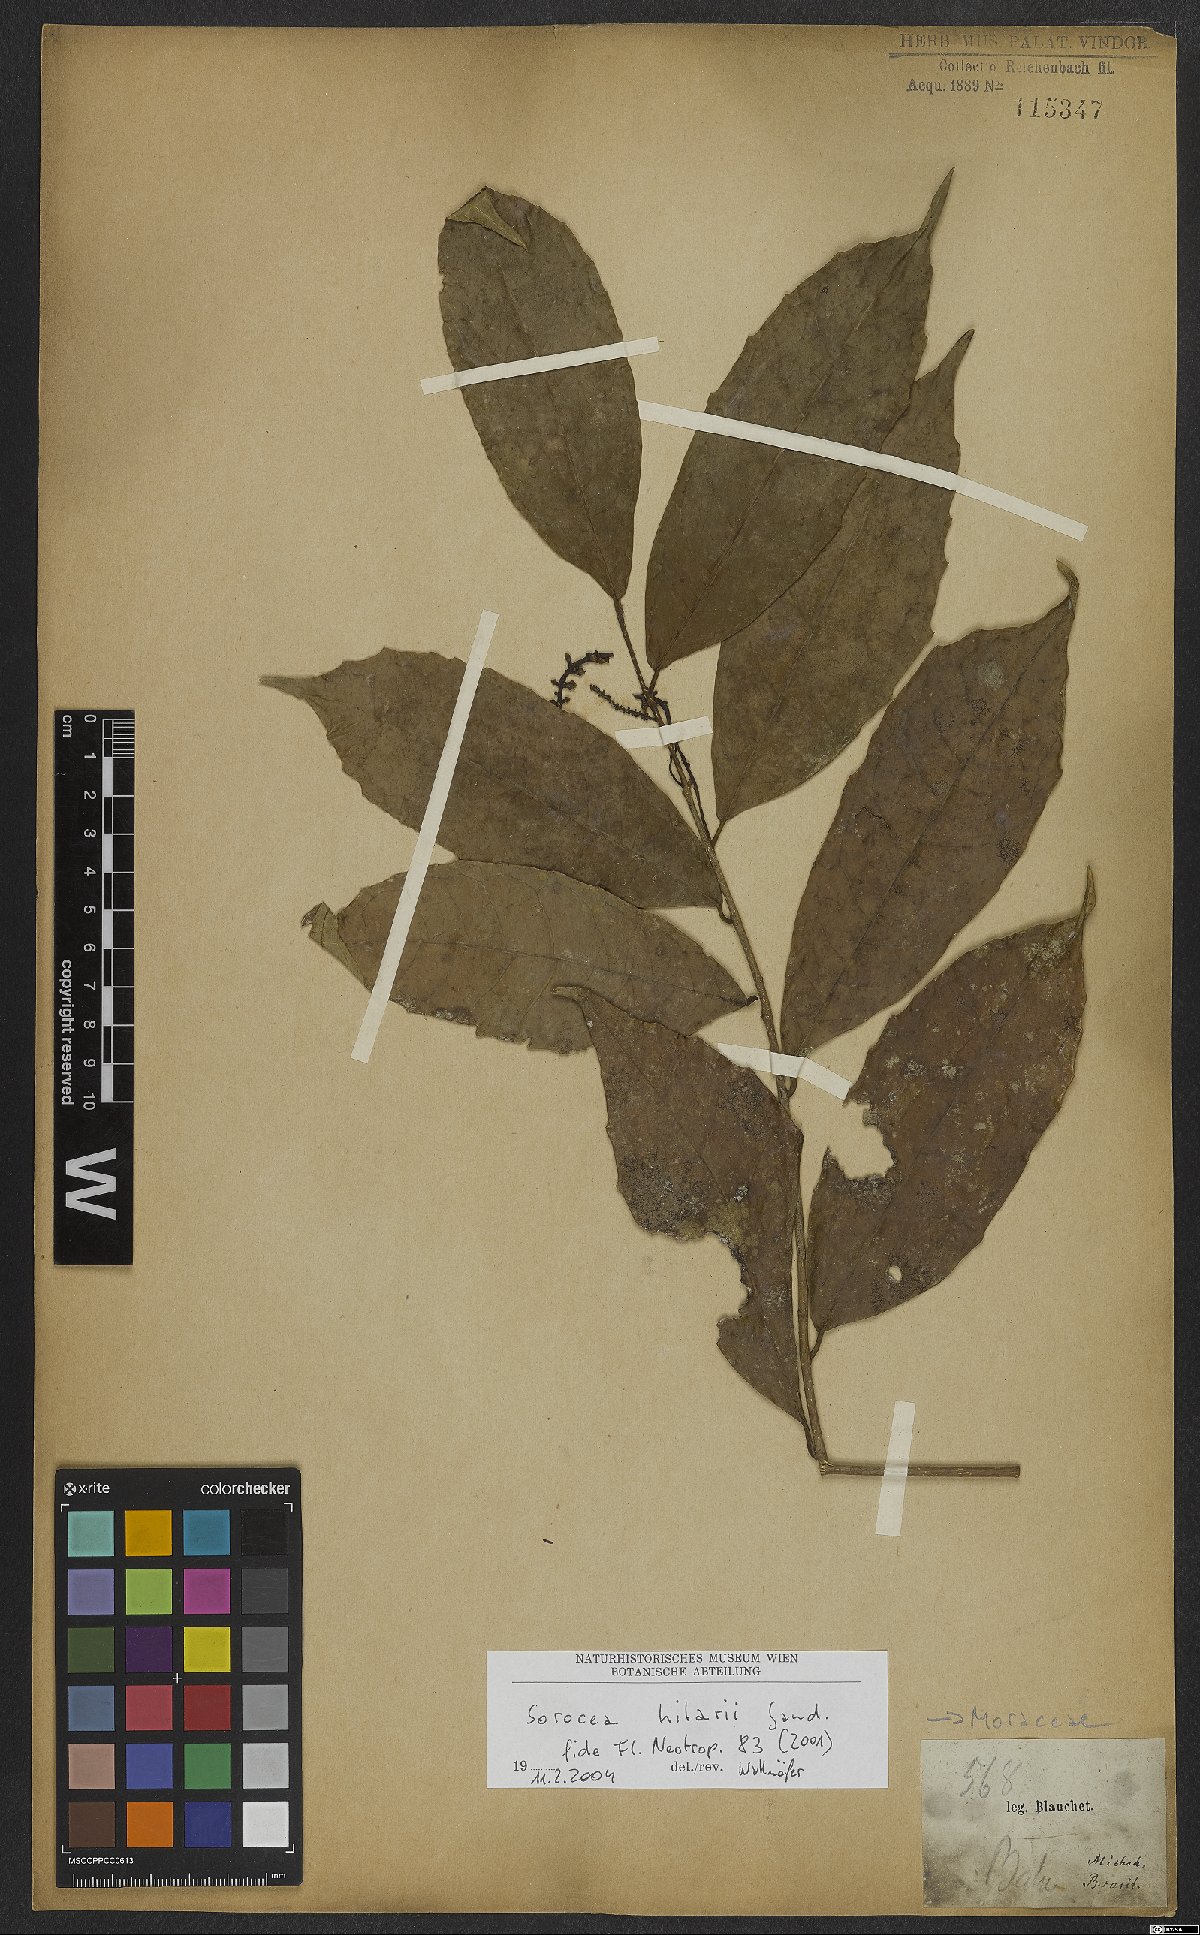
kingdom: Plantae
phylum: Tracheophyta
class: Magnoliopsida
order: Rosales
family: Moraceae
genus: Sorocea
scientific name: Sorocea hilarii
